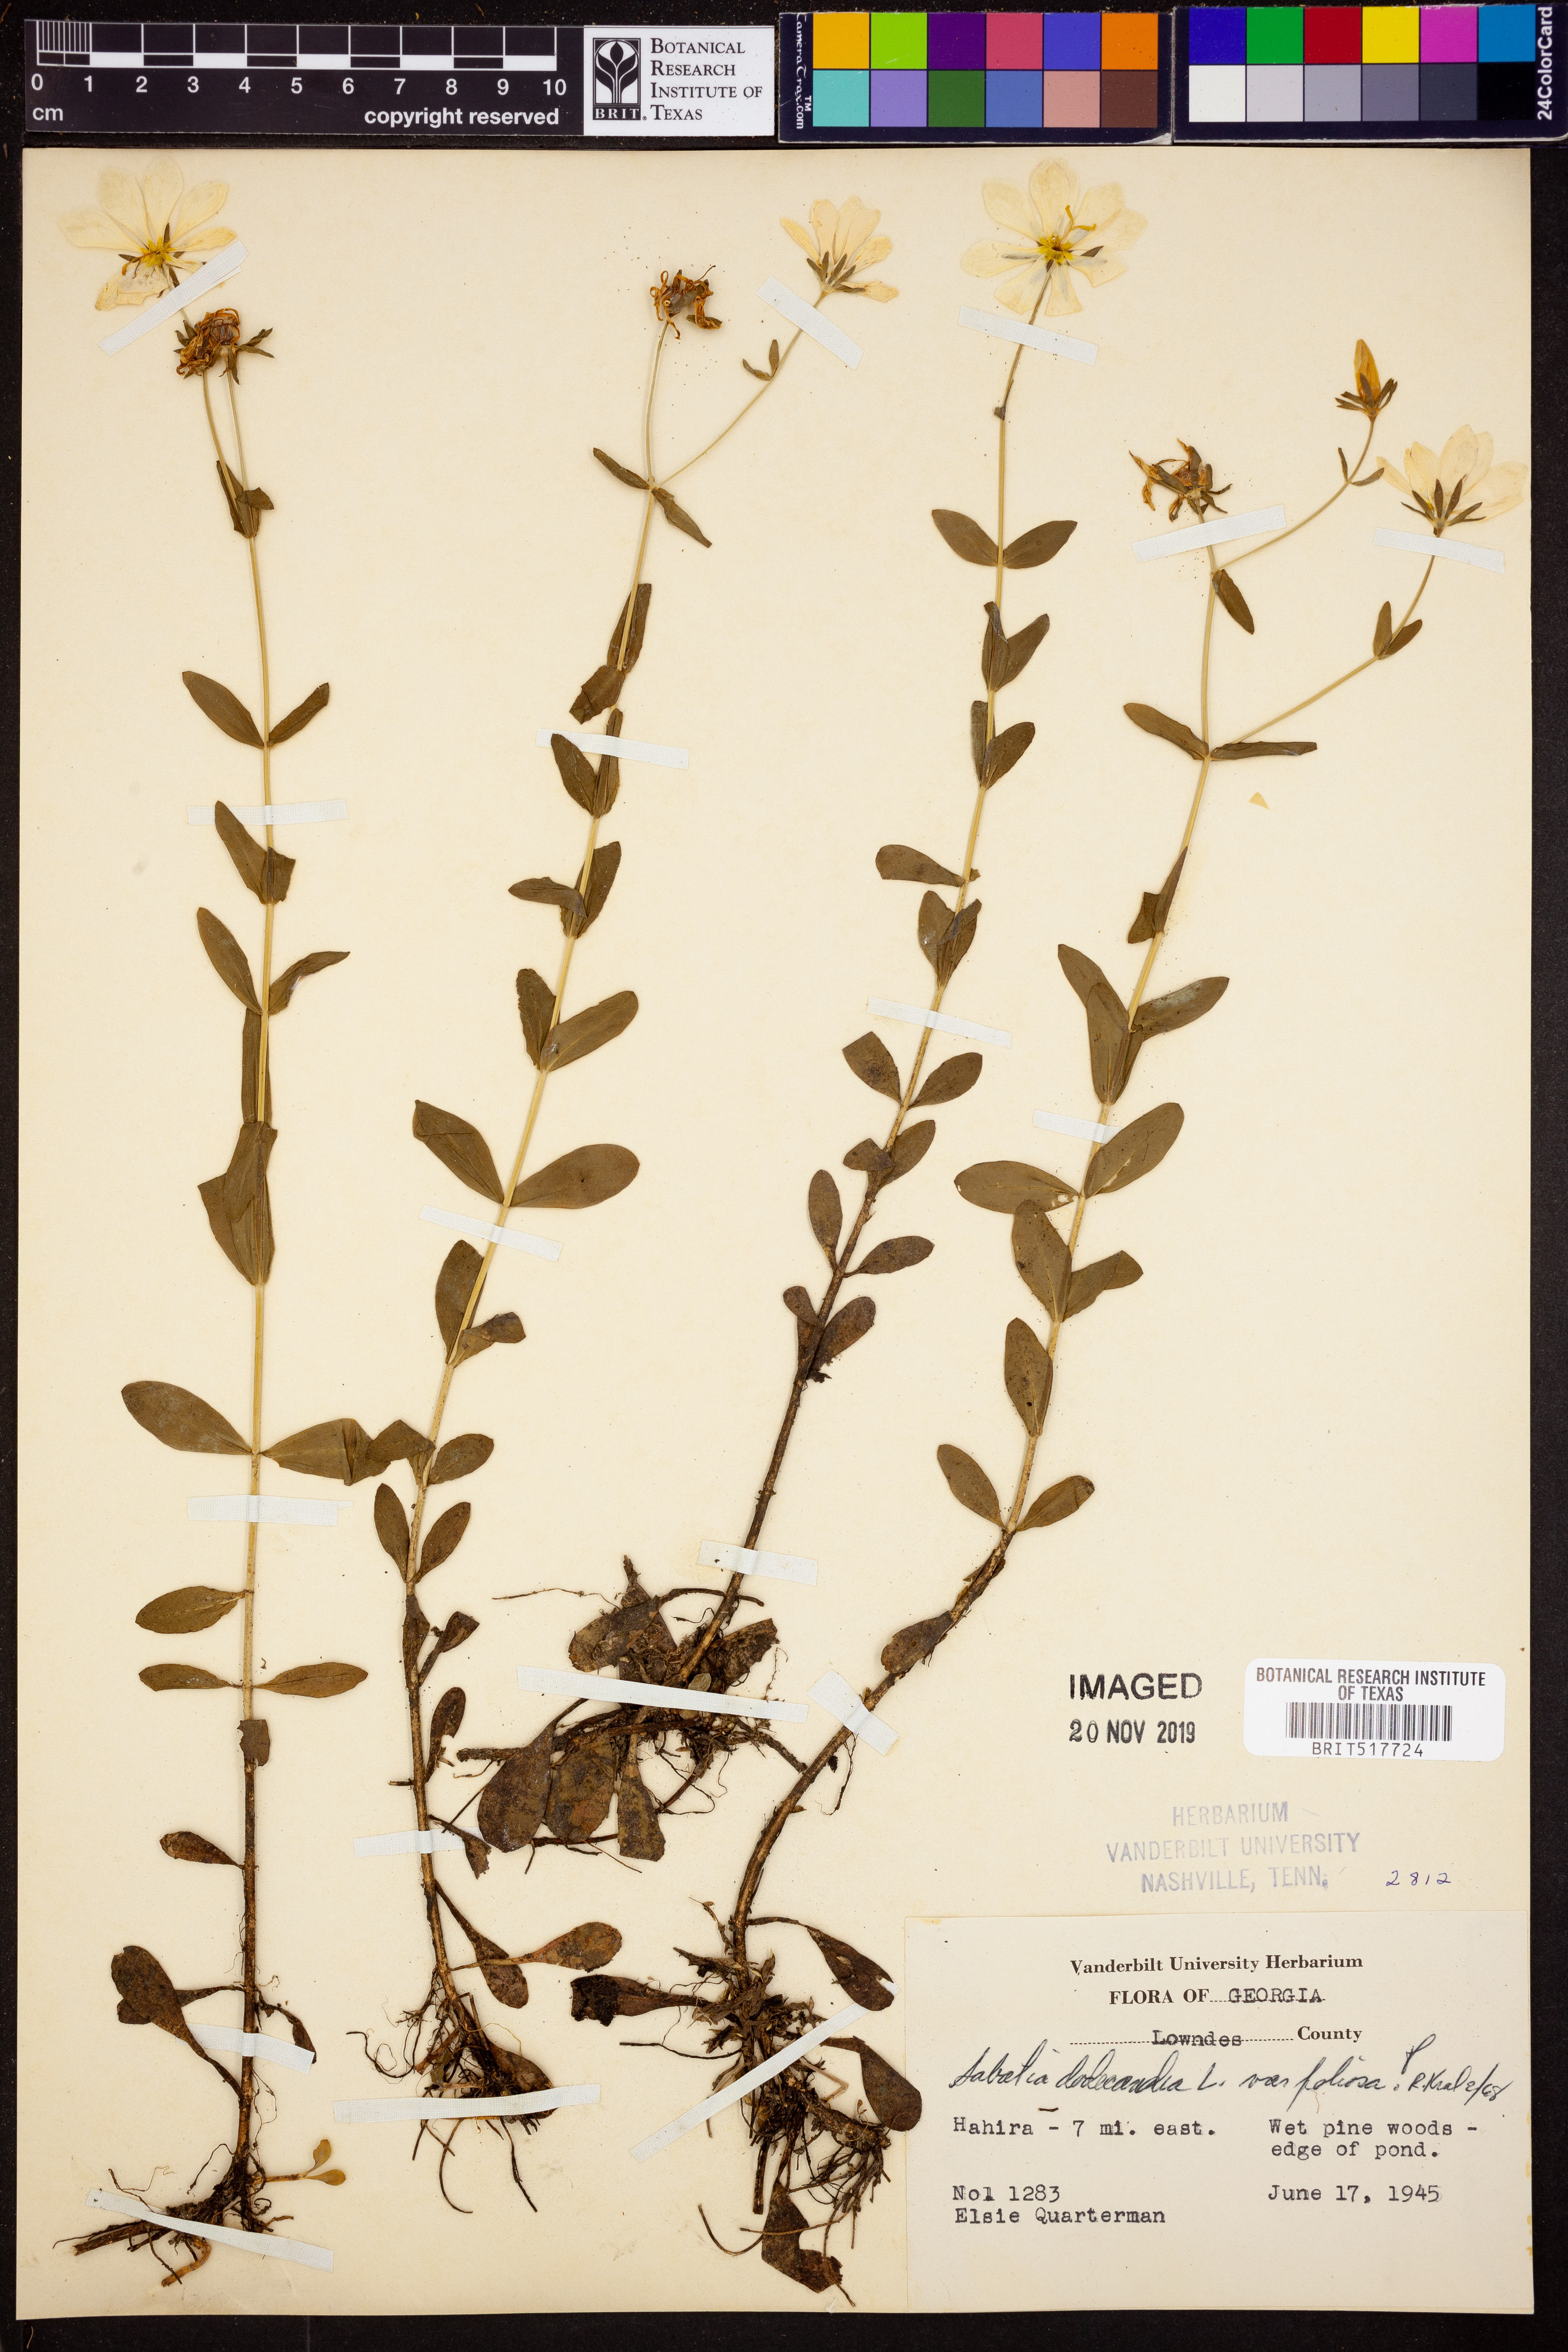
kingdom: Plantae
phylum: Tracheophyta
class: Magnoliopsida
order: Gentianales
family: Gentianaceae
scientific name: Gentianaceae
